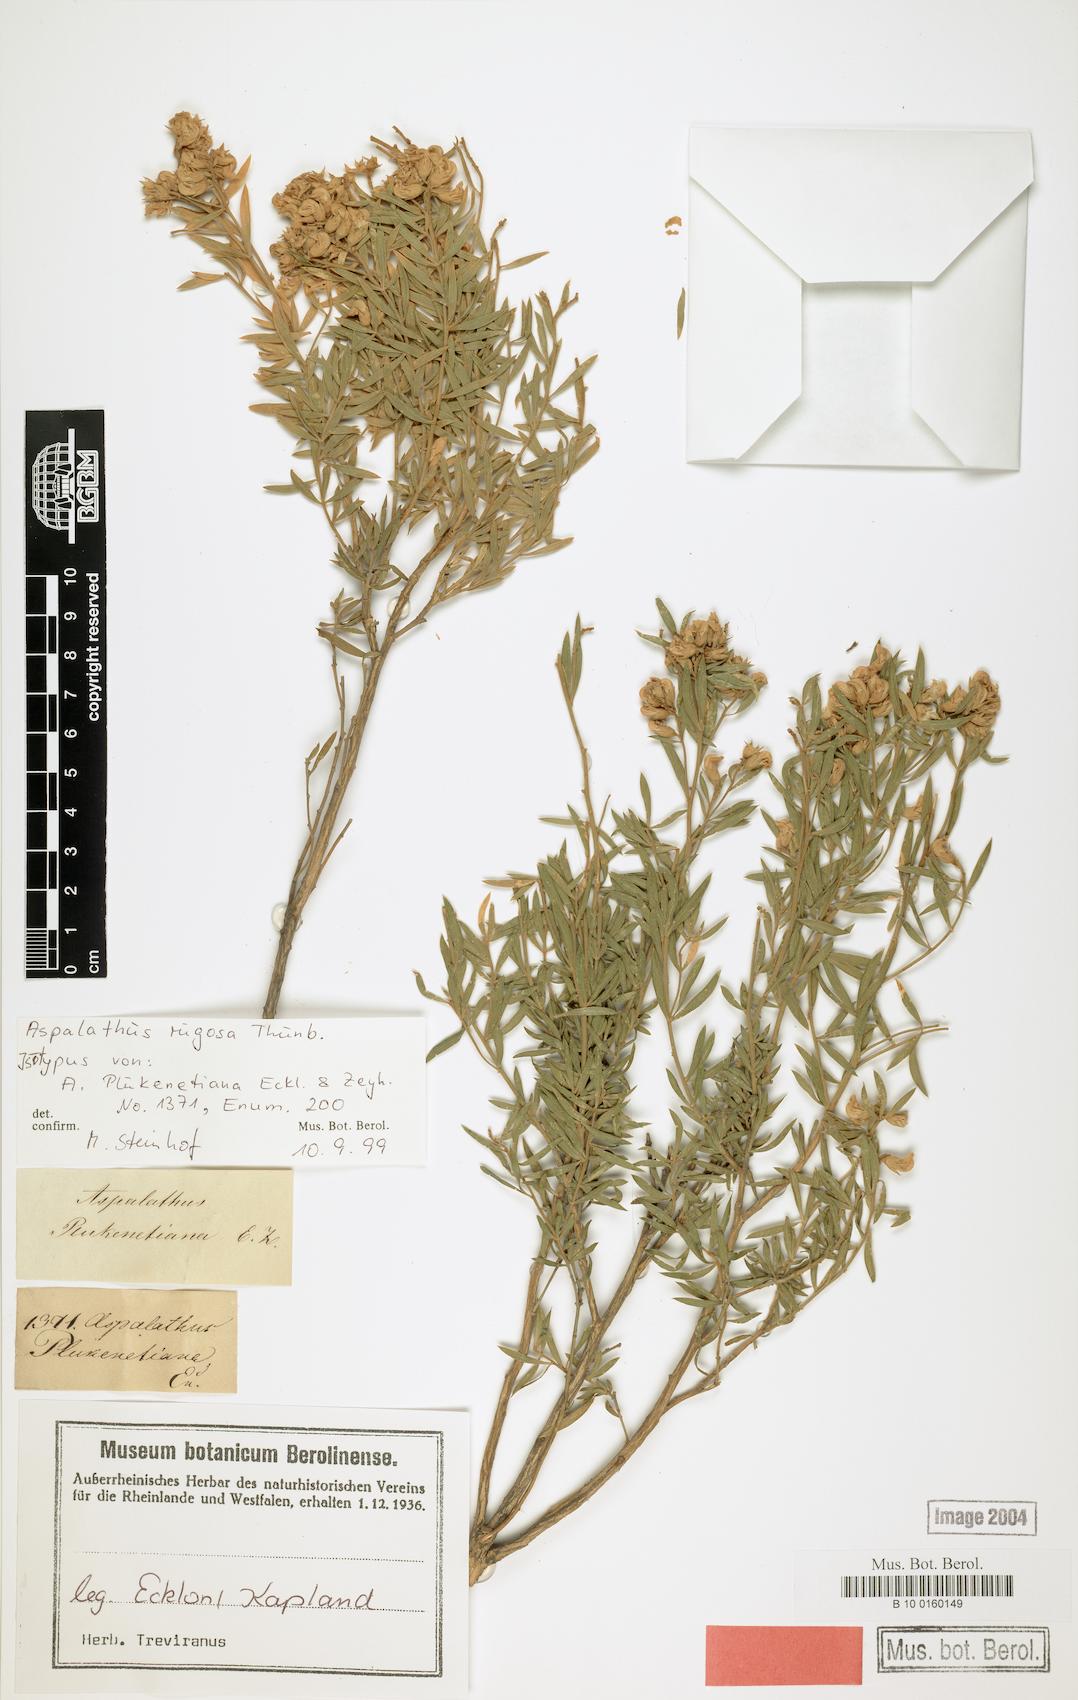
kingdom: Plantae
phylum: Tracheophyta
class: Magnoliopsida
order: Fabales
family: Fabaceae
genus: Aspalathus
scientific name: Aspalathus rugosa
